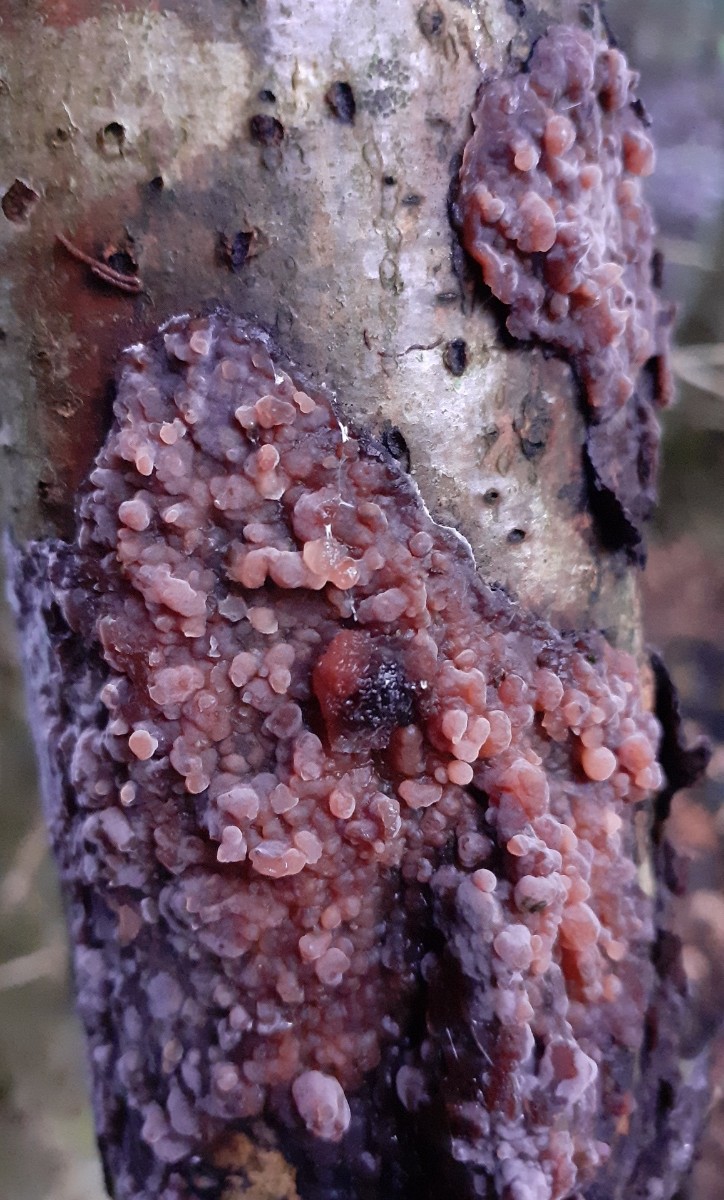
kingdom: Fungi
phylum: Basidiomycota
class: Pucciniomycetes
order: Platygloeales
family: Platygloeaceae
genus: Platygloea
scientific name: Platygloea
